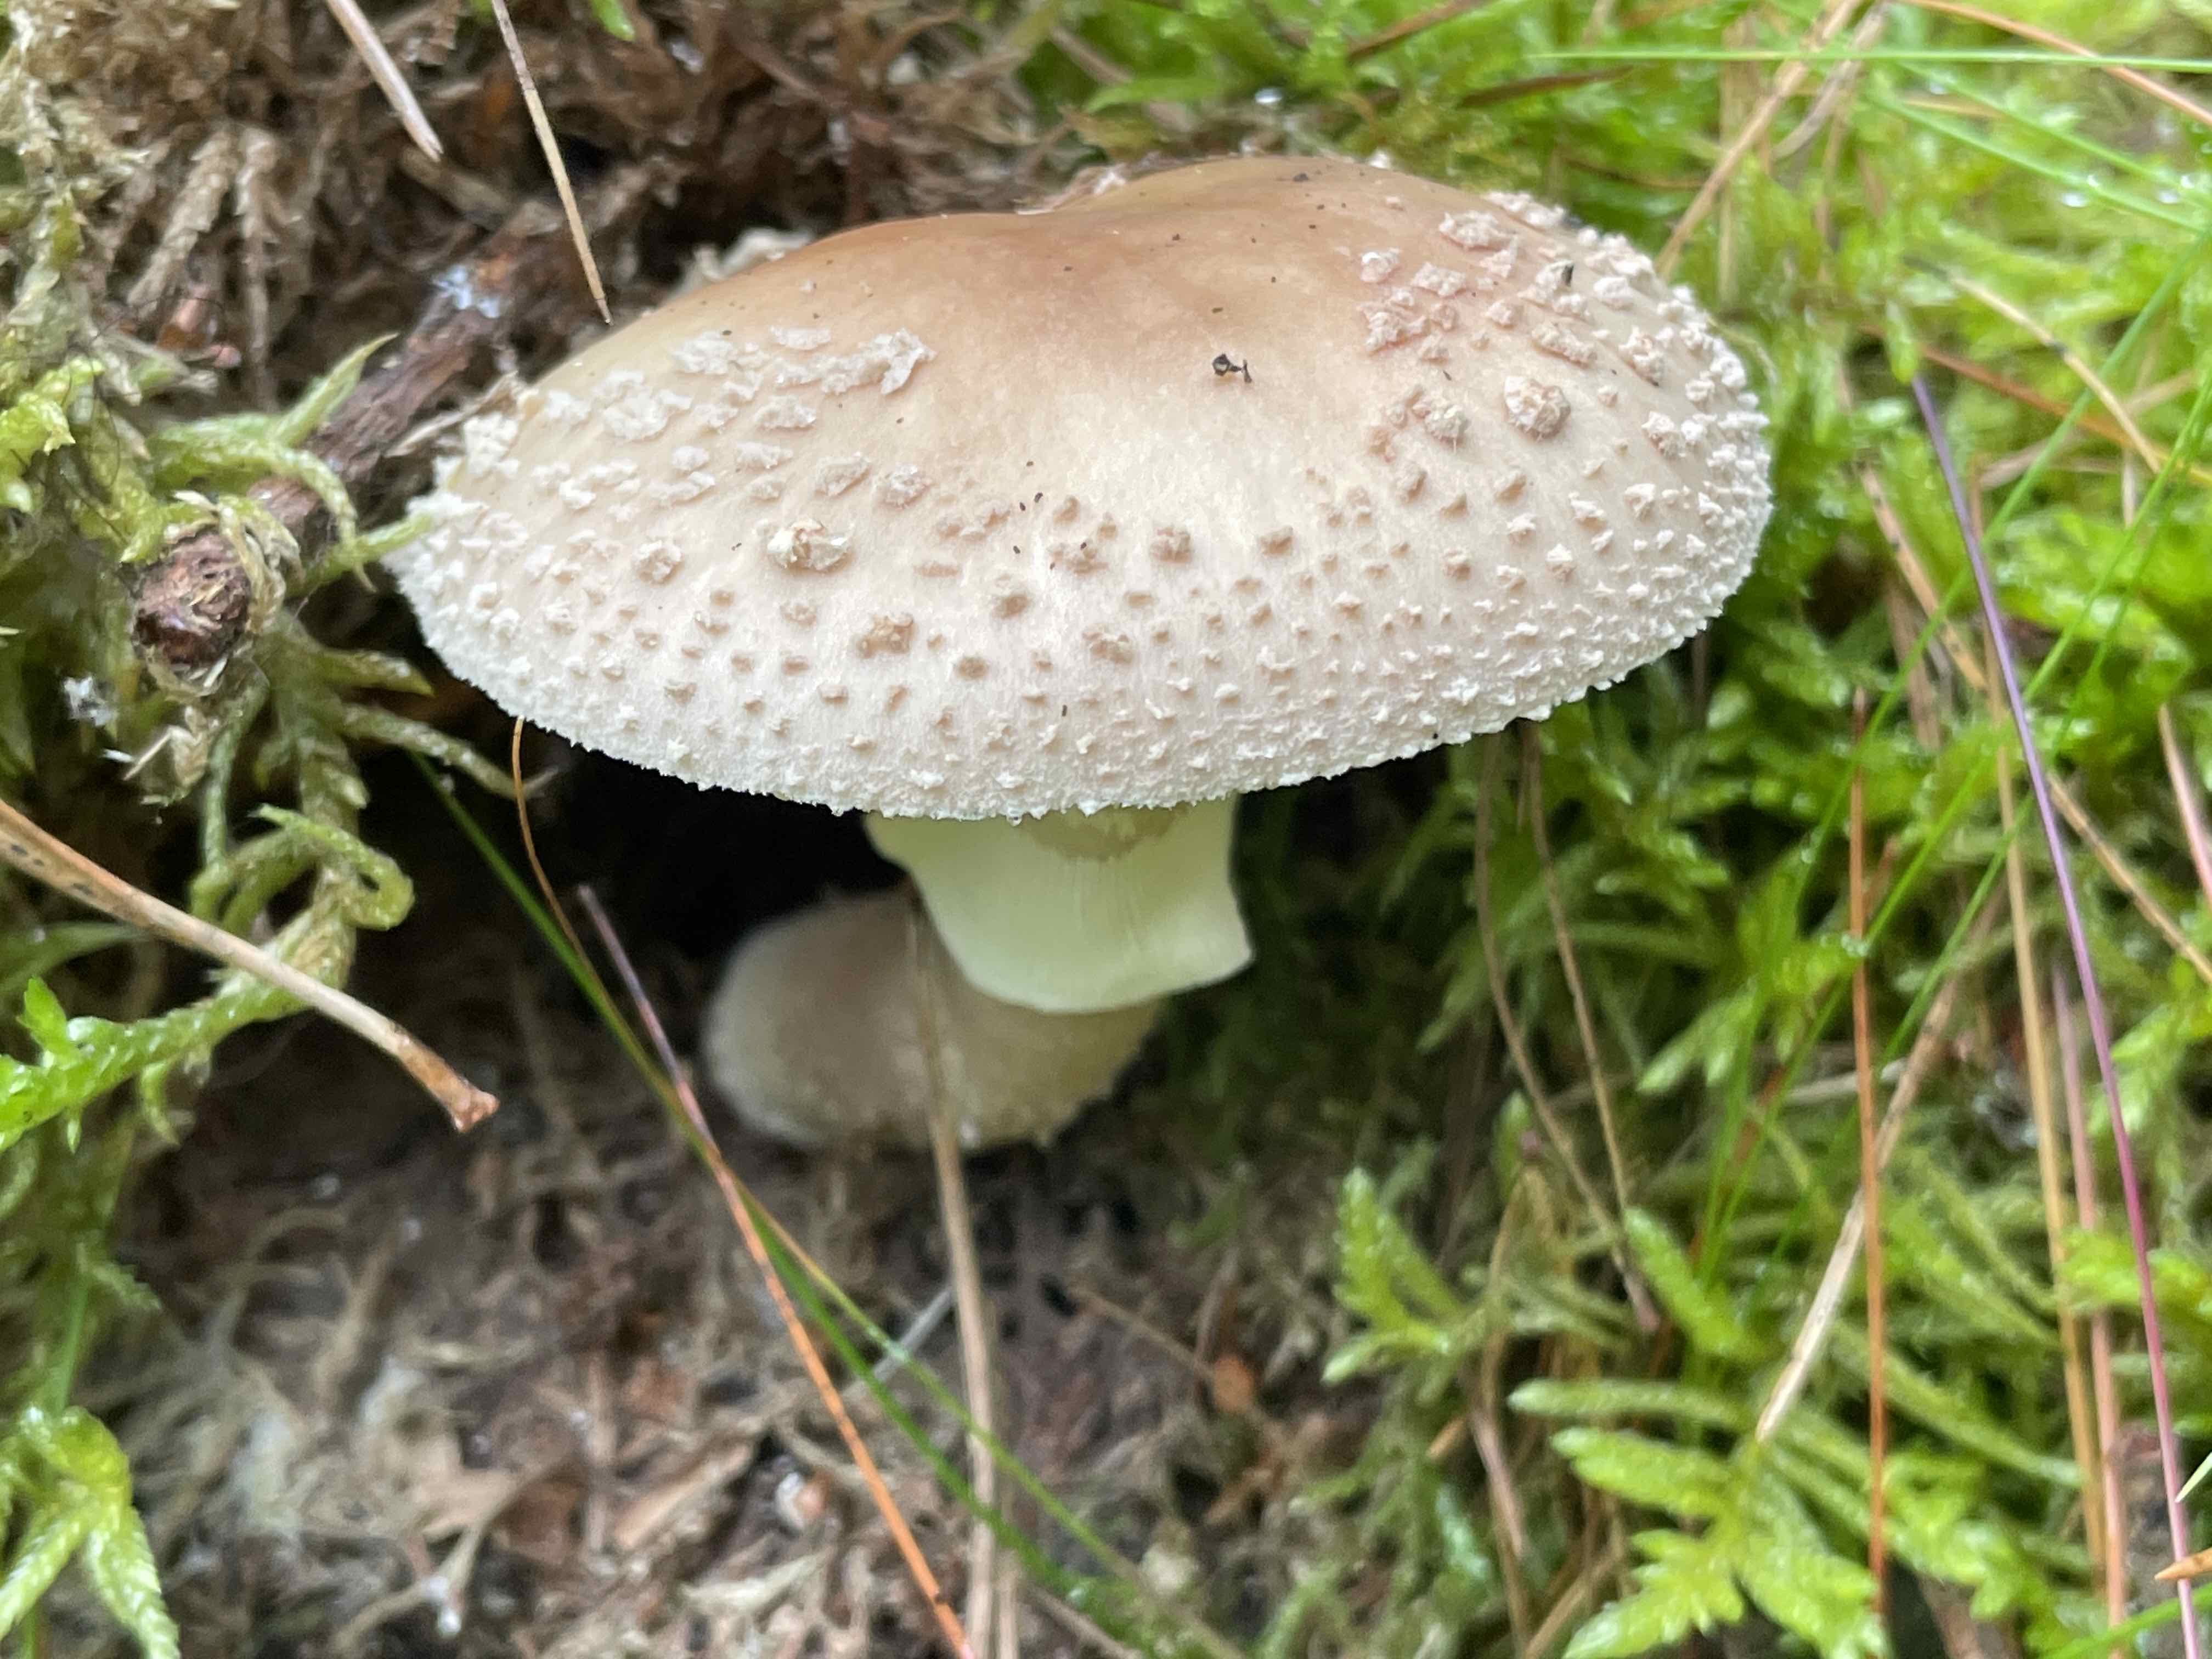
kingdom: Fungi
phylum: Basidiomycota
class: Agaricomycetes
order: Agaricales
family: Amanitaceae
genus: Amanita
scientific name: Amanita rubescens
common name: rødmende fluesvamp
